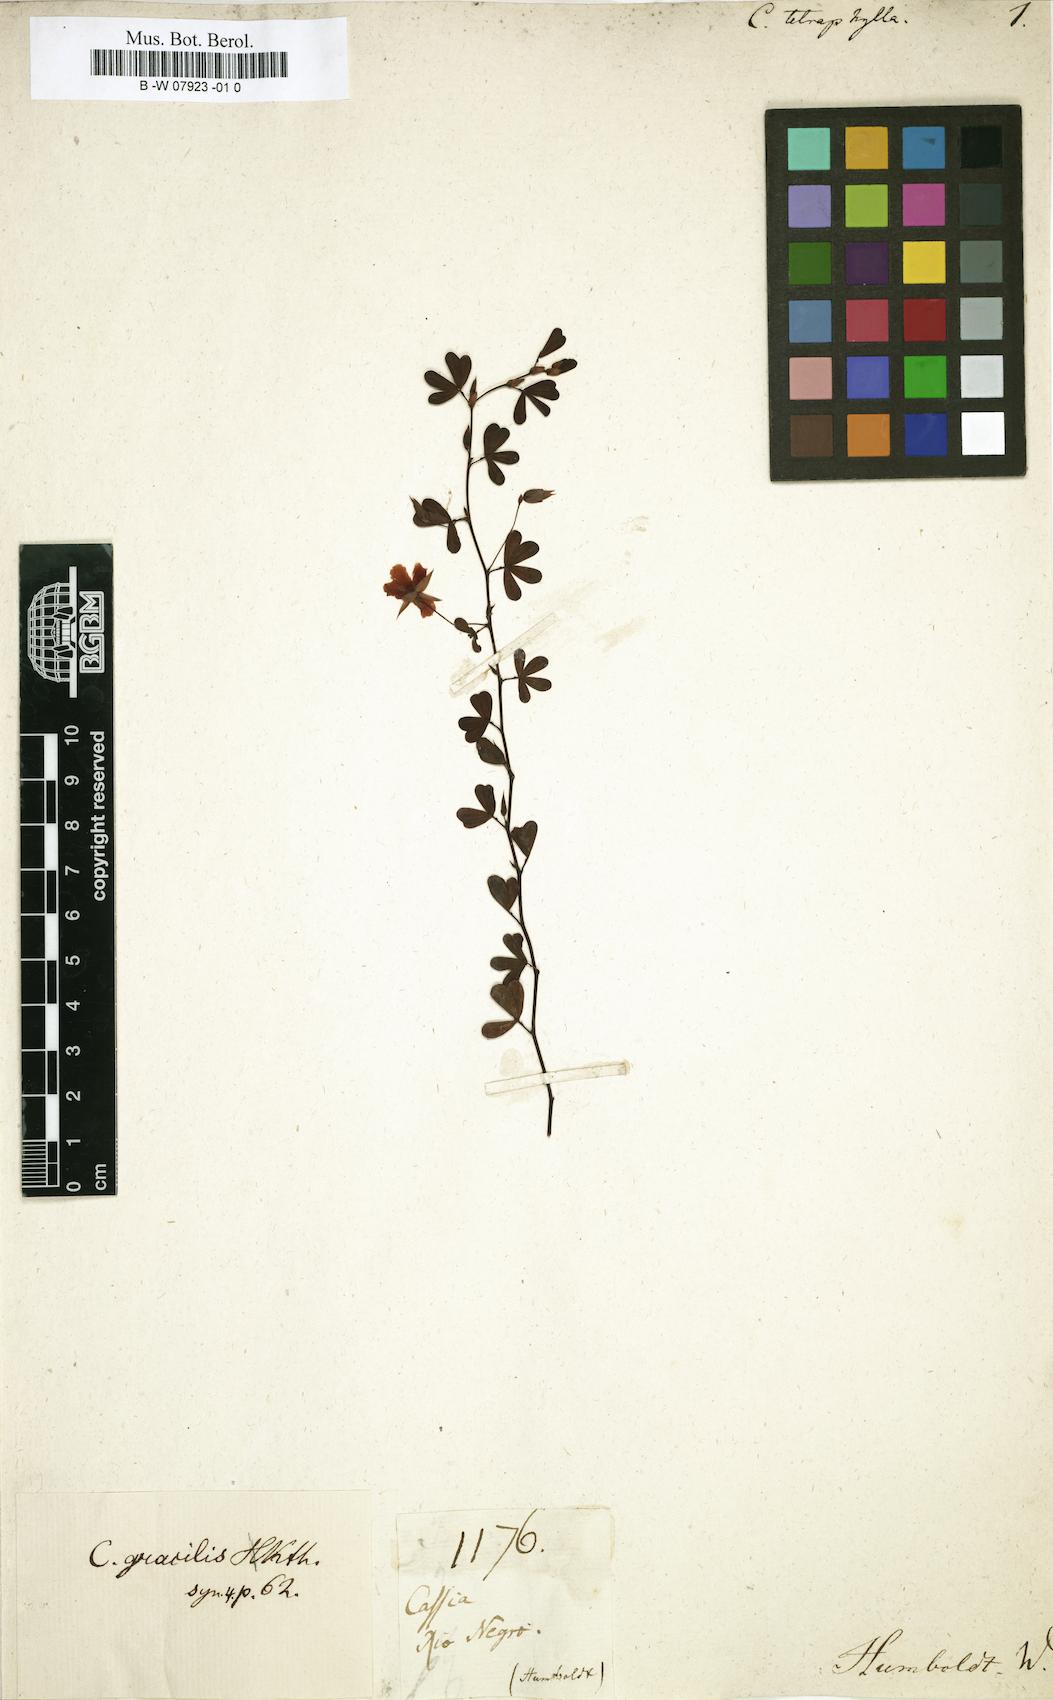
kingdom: Plantae
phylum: Tracheophyta
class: Magnoliopsida
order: Fabales
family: Fabaceae
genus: Chamaecrista
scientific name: Chamaecrista
